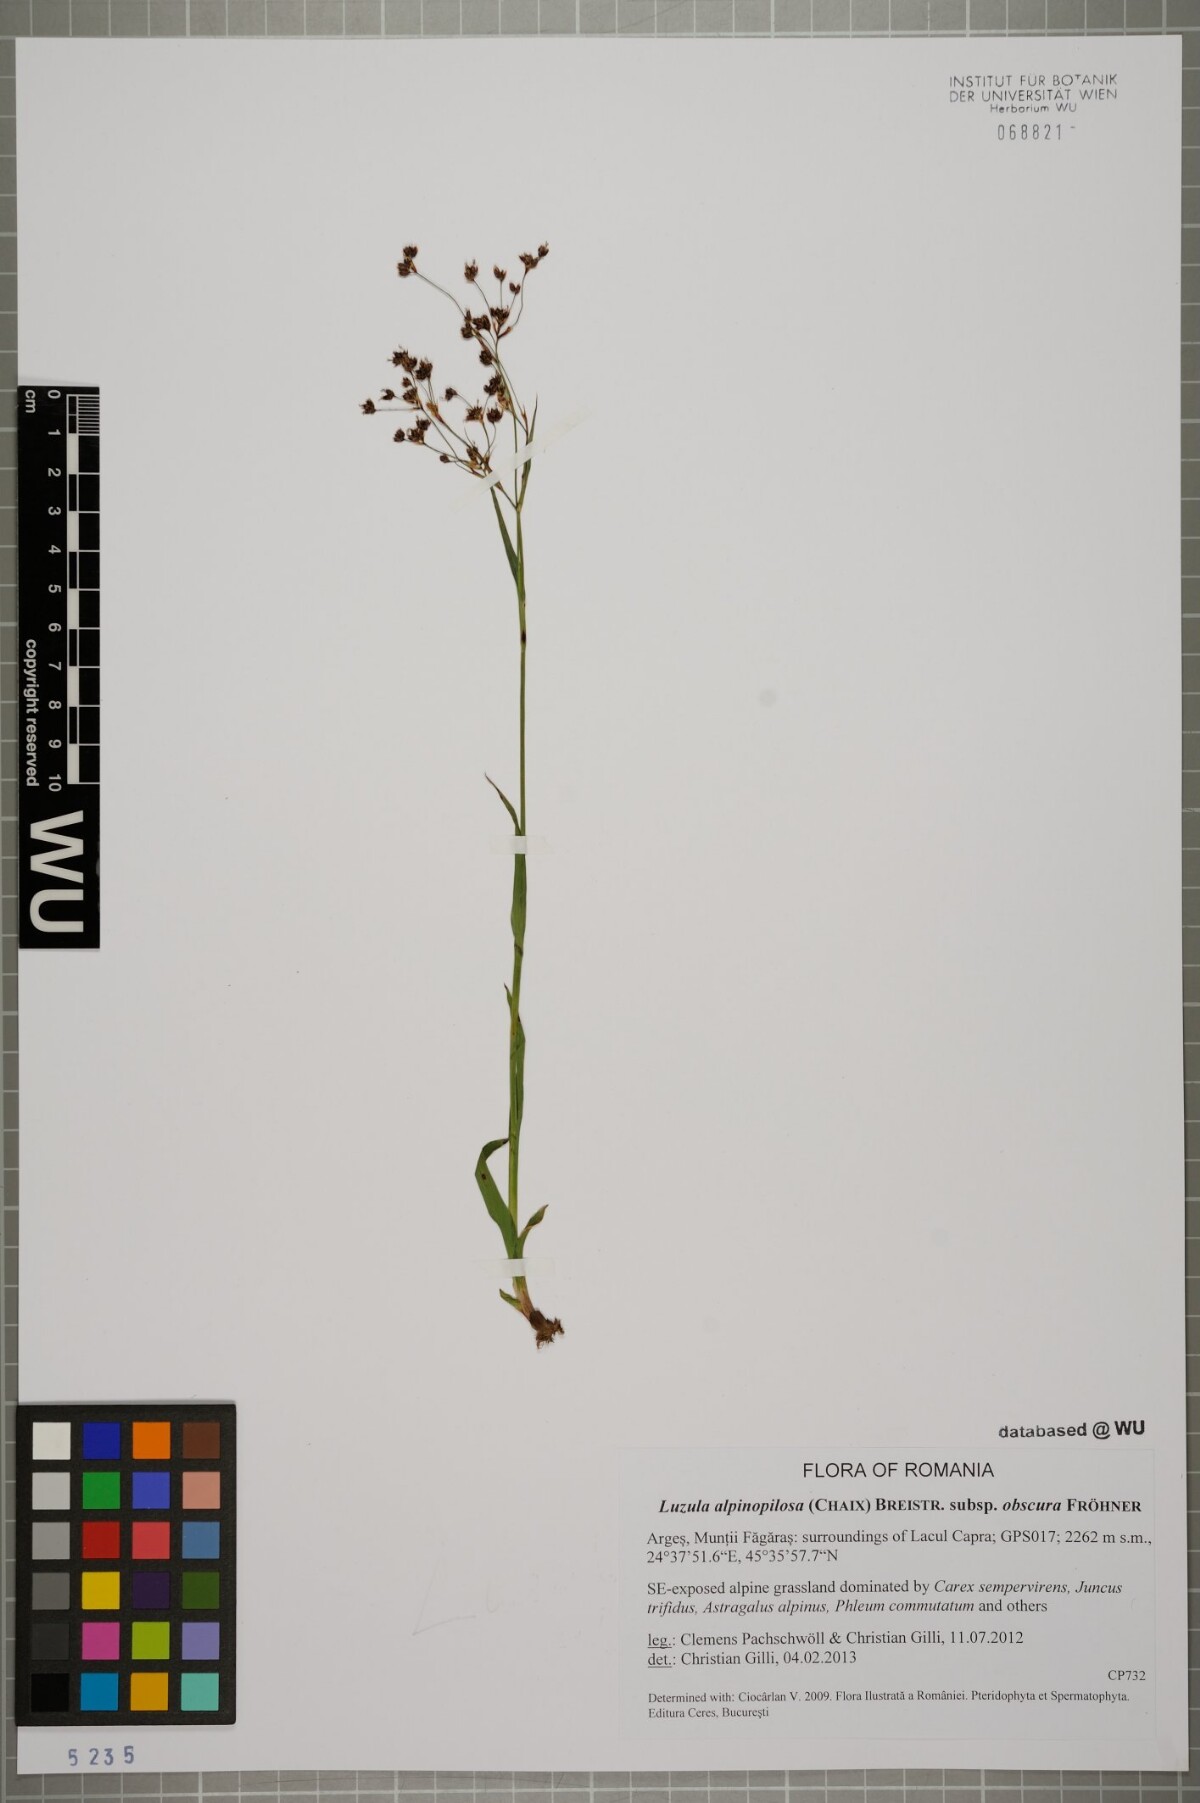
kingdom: Plantae
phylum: Tracheophyta
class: Liliopsida
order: Poales
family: Juncaceae
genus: Luzula
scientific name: Luzula alpinopilosa
